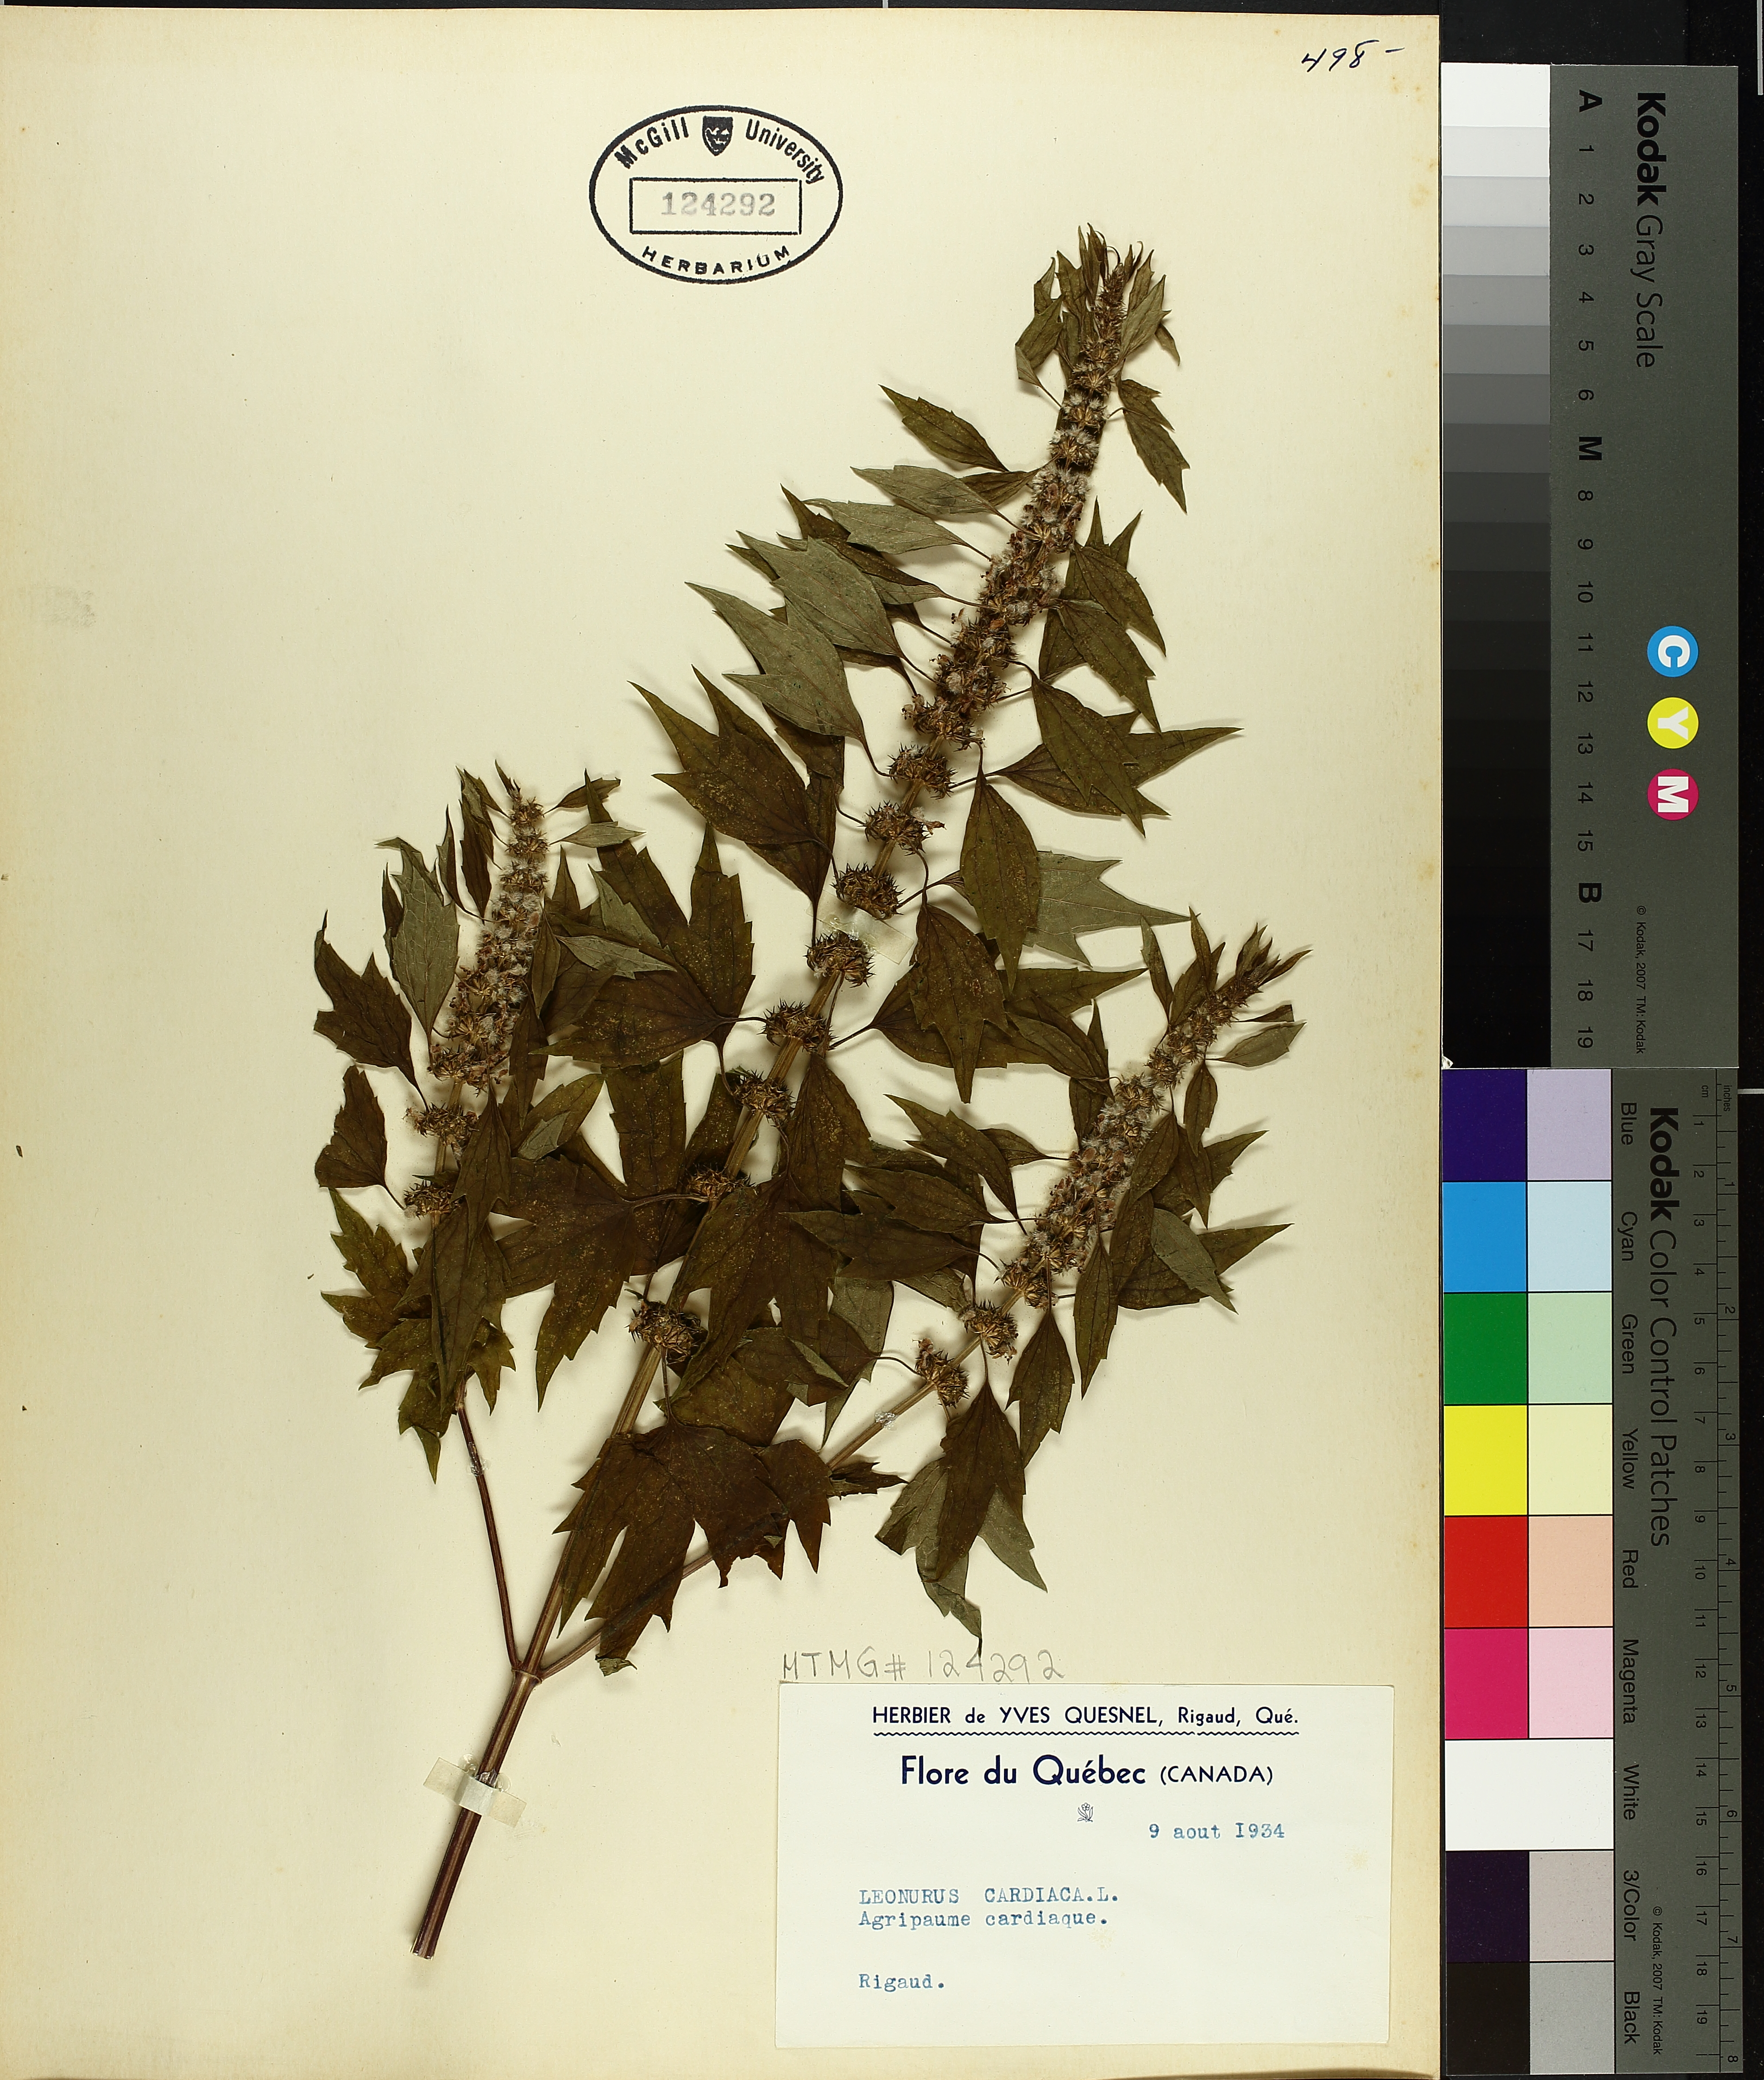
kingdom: Plantae
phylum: Tracheophyta
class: Magnoliopsida
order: Lamiales
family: Lamiaceae
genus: Leonurus
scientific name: Leonurus cardiaca
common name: Motherwort
